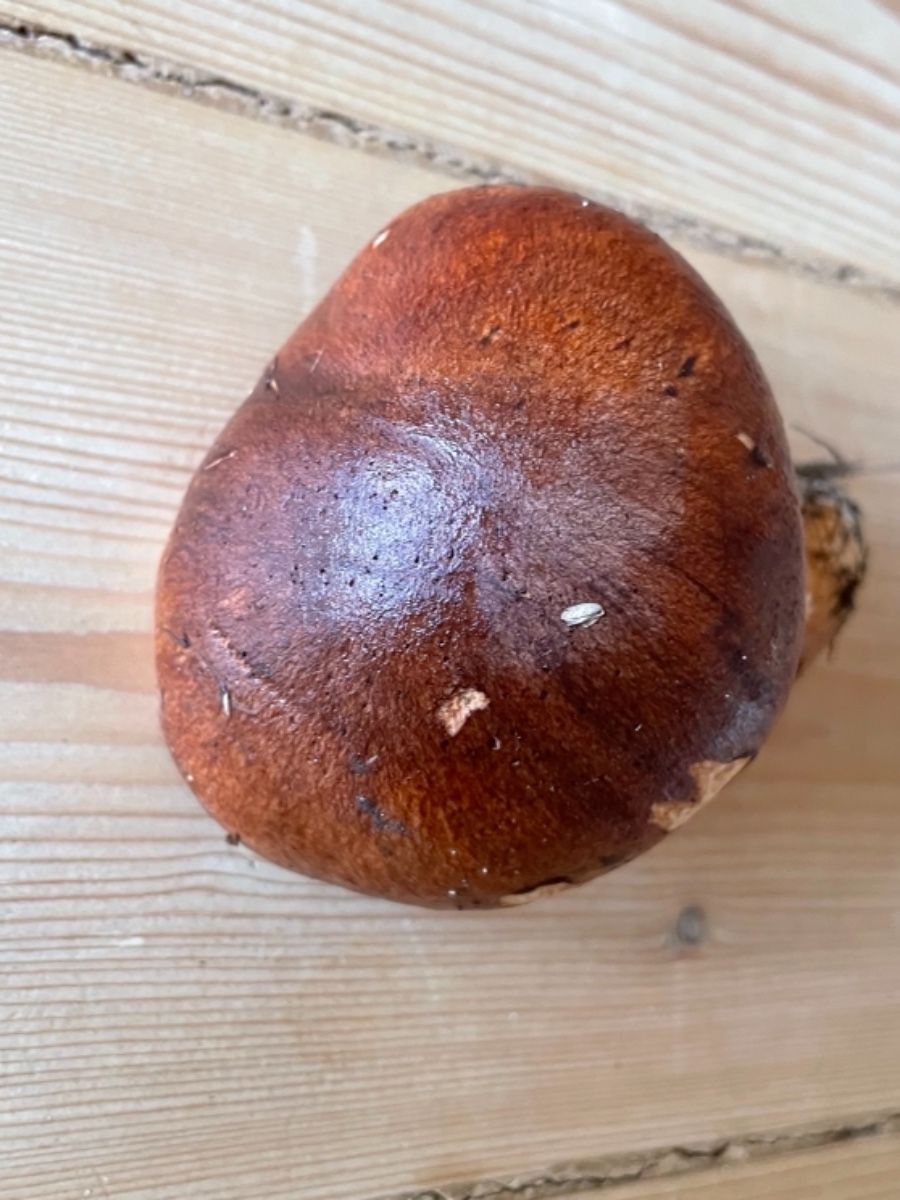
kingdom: Fungi
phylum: Basidiomycota
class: Agaricomycetes
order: Agaricales
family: Tricholomataceae
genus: Tricholoma
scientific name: Tricholoma fracticum
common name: hvidhalset ridderhat
